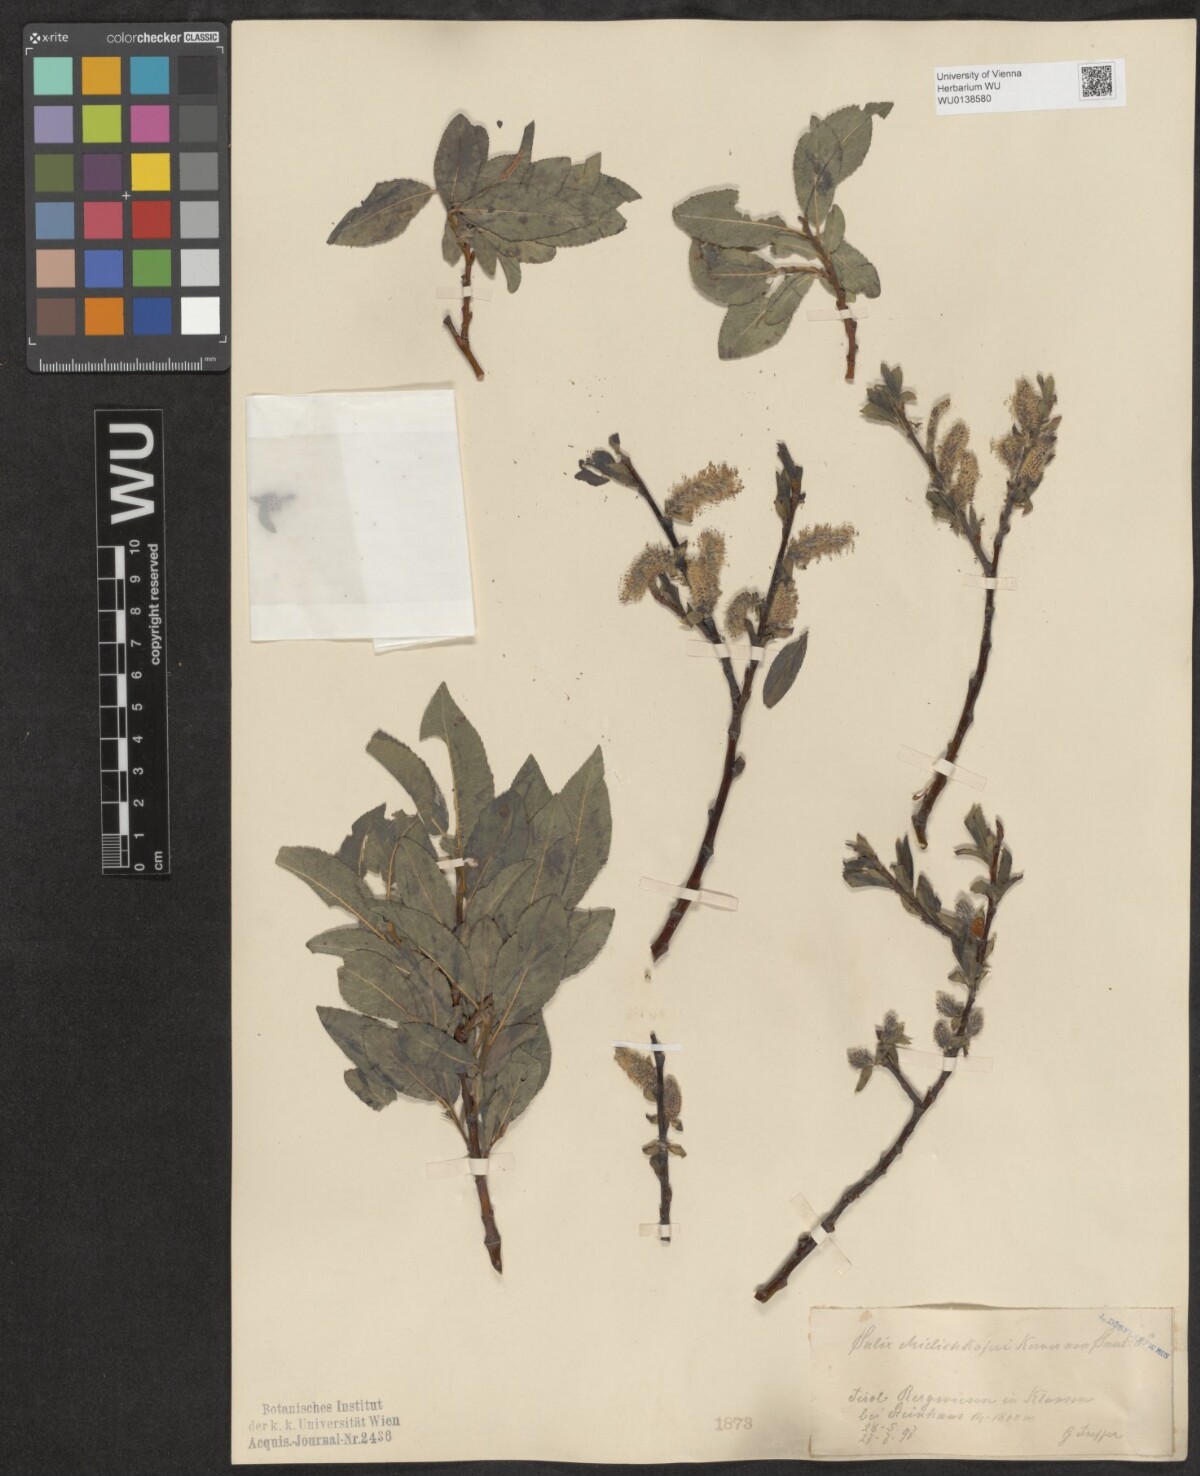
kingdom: Plantae
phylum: Tracheophyta
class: Magnoliopsida
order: Malpighiales
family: Salicaceae
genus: Salix
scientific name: Salix mielichhoferi
